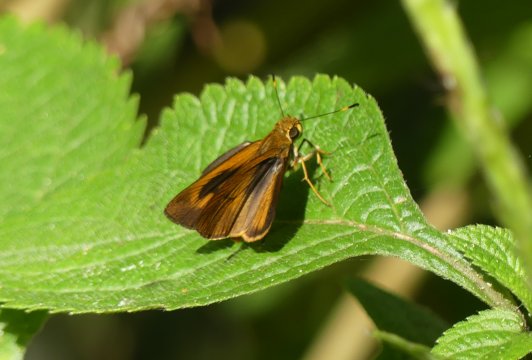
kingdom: Animalia
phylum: Arthropoda
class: Insecta
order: Lepidoptera
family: Hesperiidae
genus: Anthoptus
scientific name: Anthoptus epictetus
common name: Trailside Skipper
